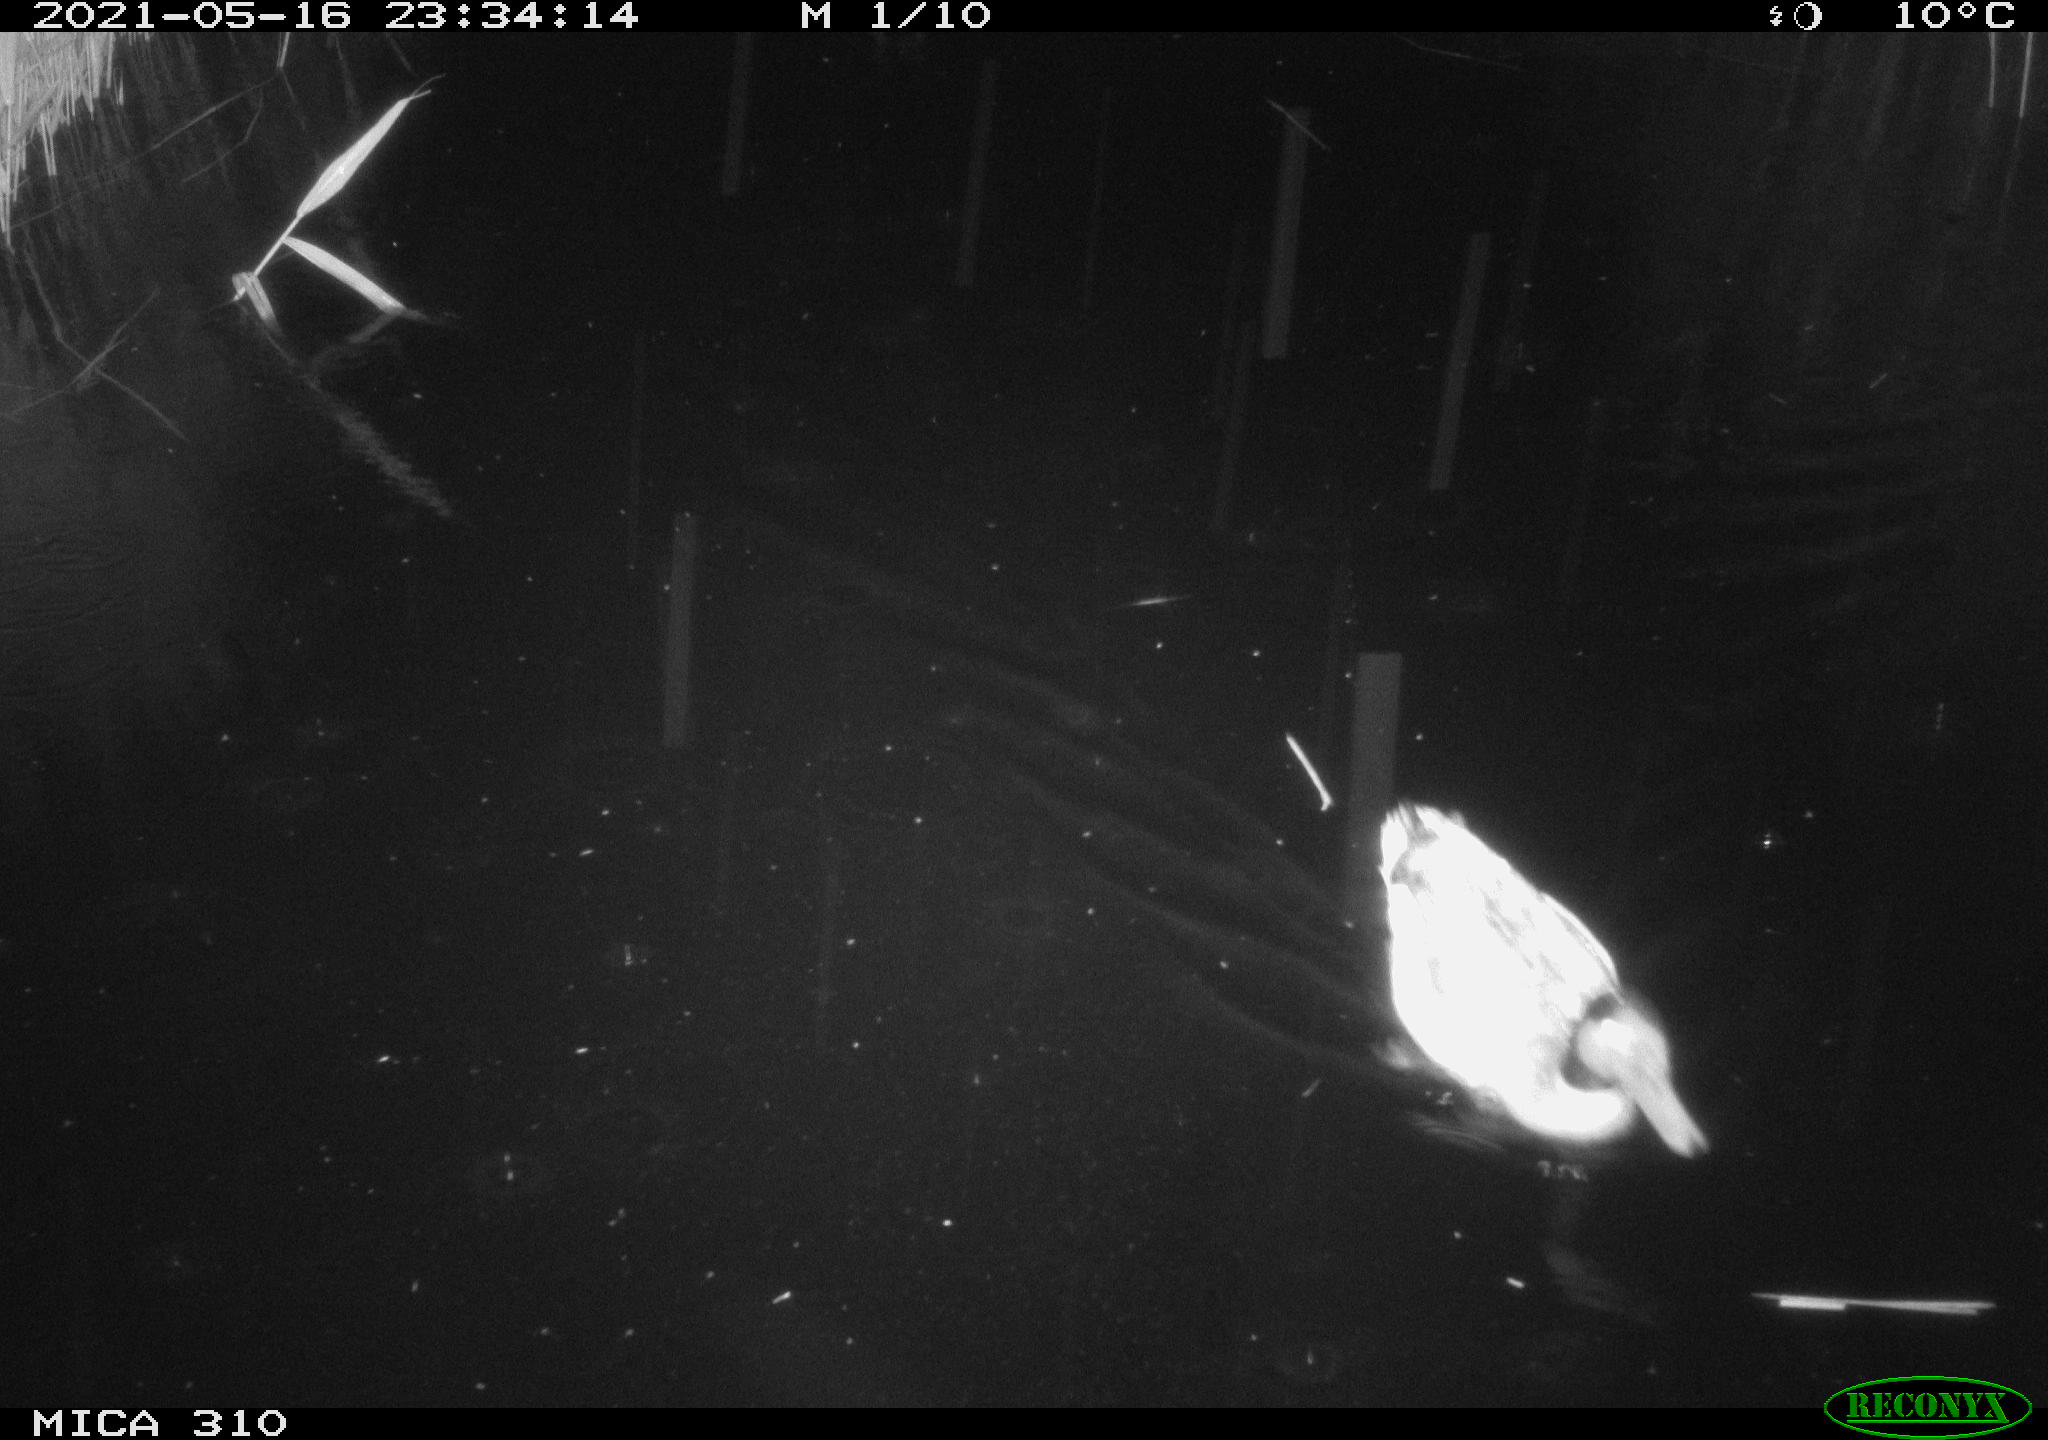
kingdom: Animalia
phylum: Chordata
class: Aves
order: Anseriformes
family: Anatidae
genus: Anas
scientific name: Anas platyrhynchos
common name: Mallard
